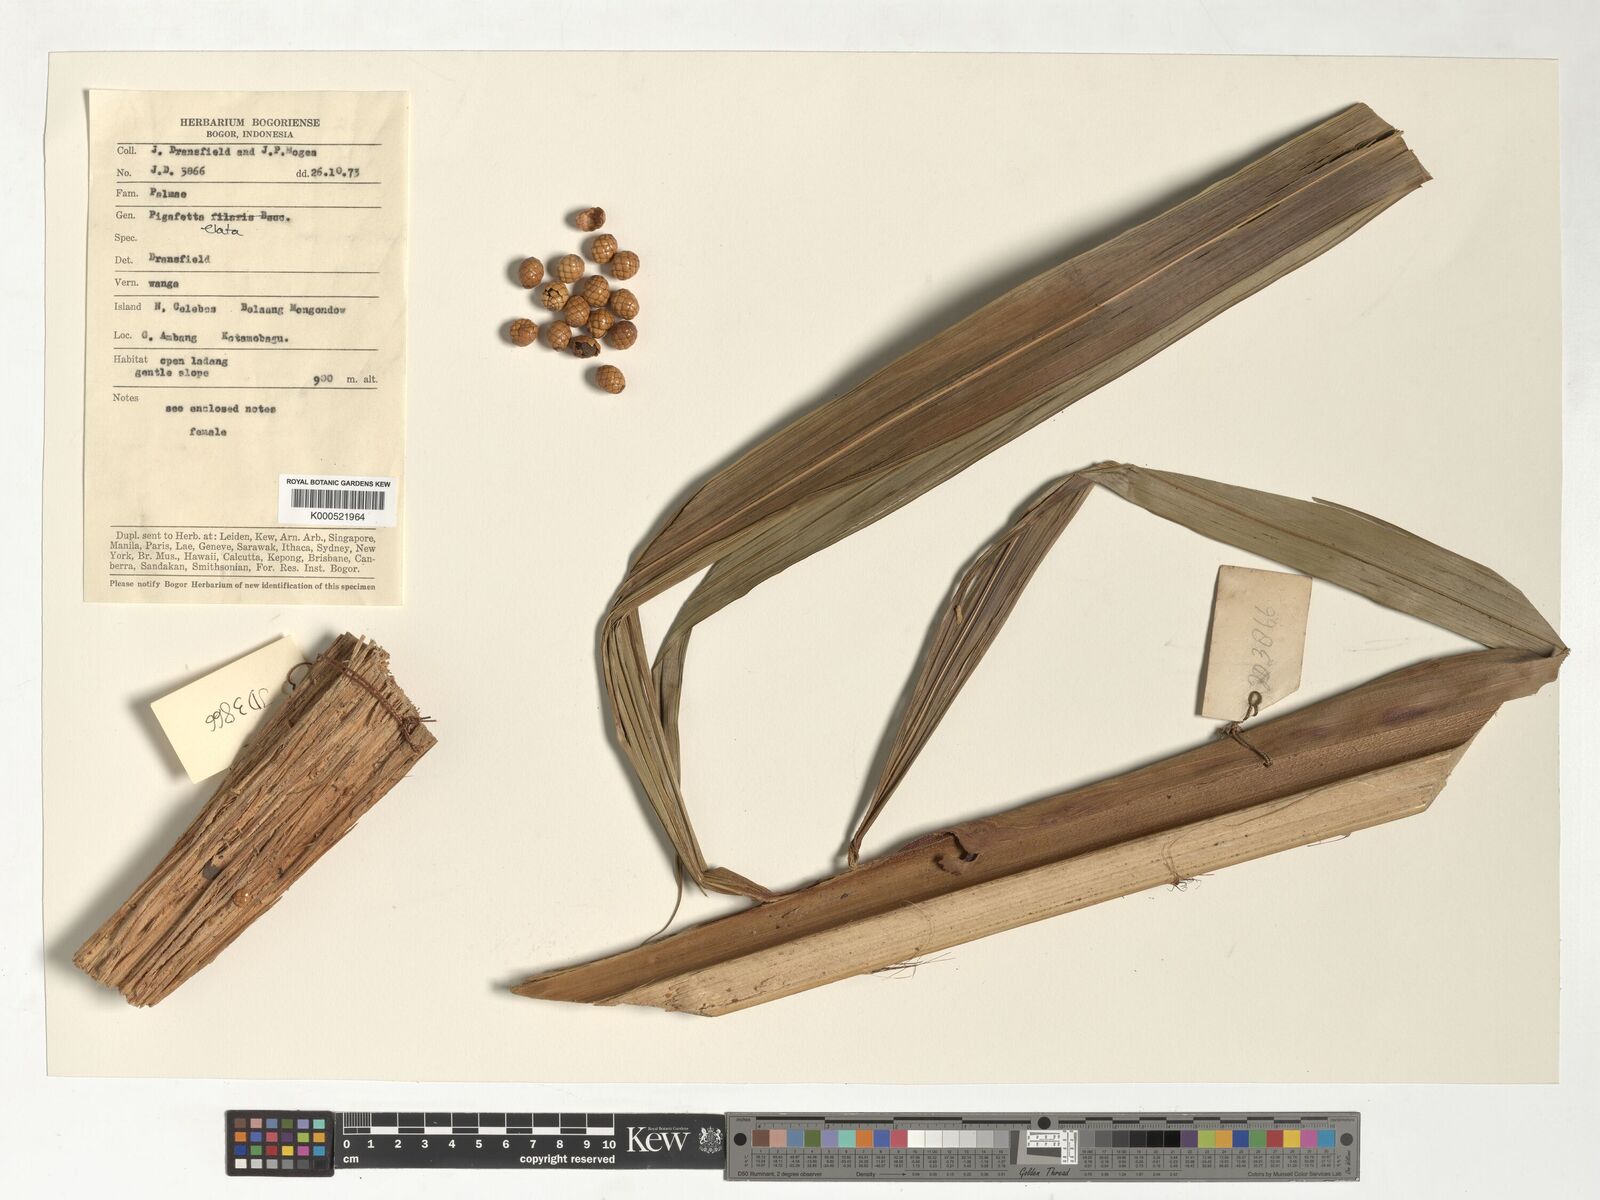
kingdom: Plantae
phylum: Tracheophyta
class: Liliopsida
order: Arecales
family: Arecaceae
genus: Pigafetta
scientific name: Pigafetta elata
